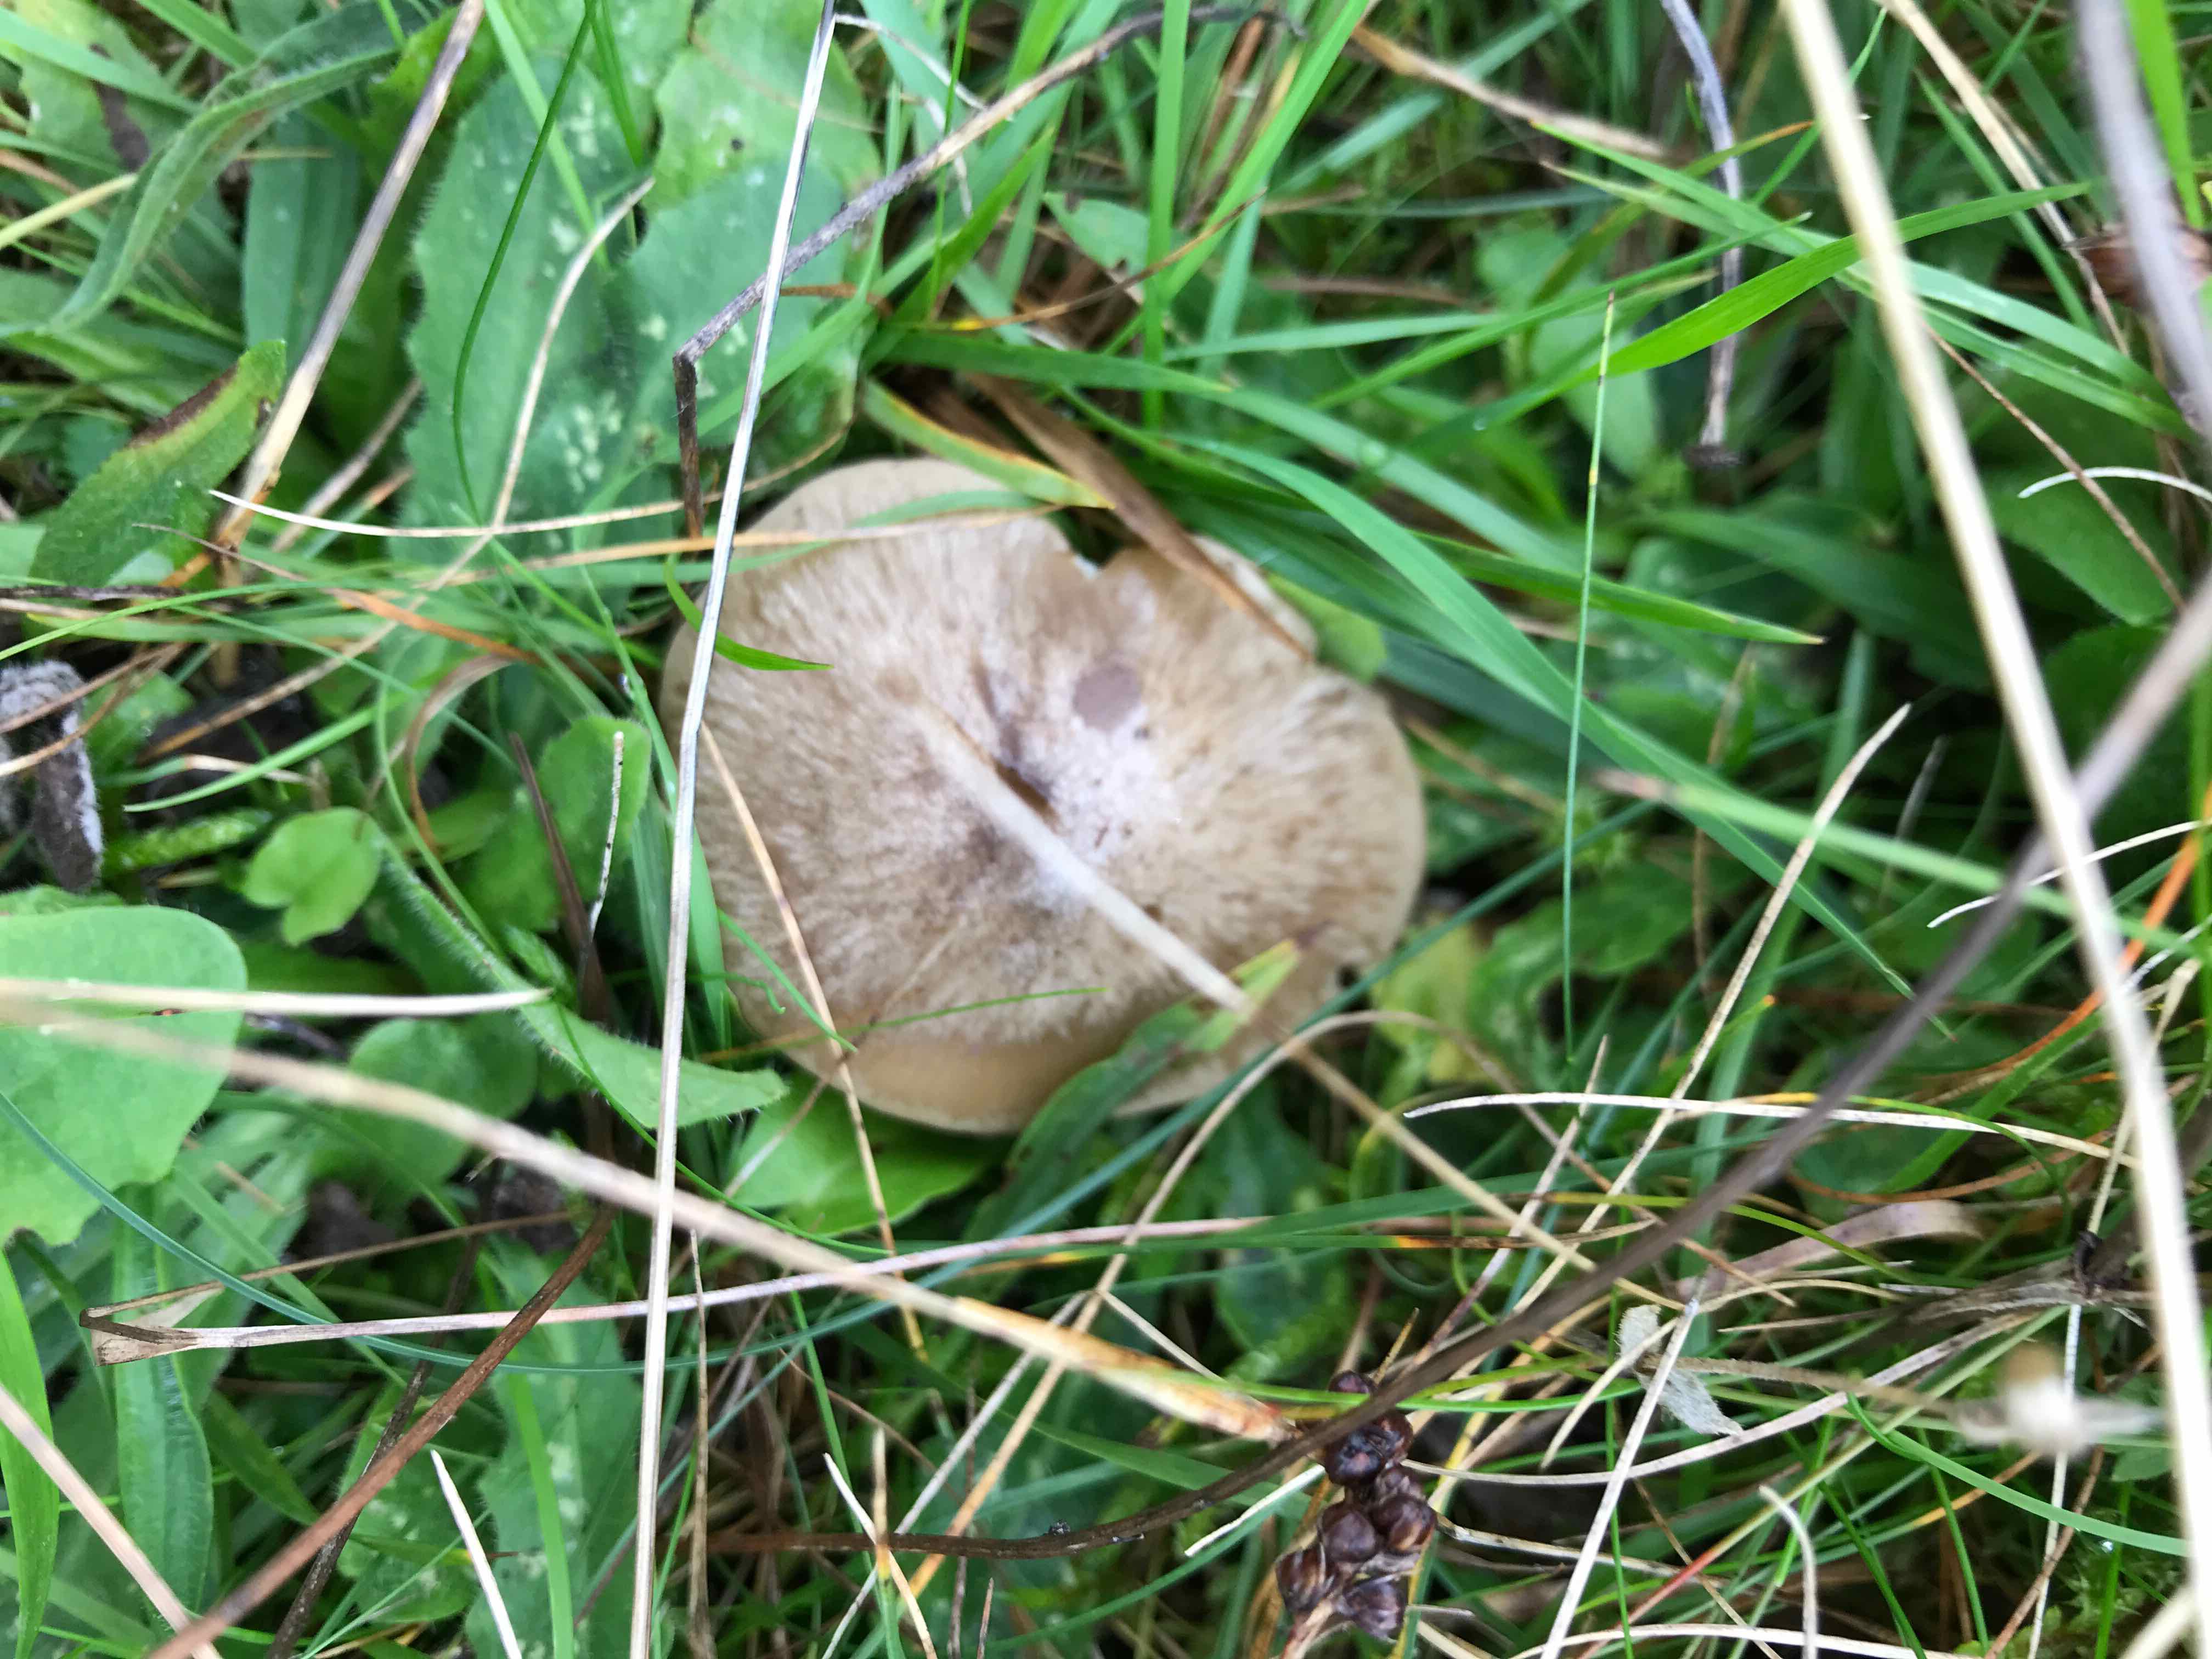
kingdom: Fungi
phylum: Basidiomycota
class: Agaricomycetes
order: Agaricales
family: Entolomataceae
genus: Entoloma
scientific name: Entoloma prunuloides
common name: mel-rødblad
